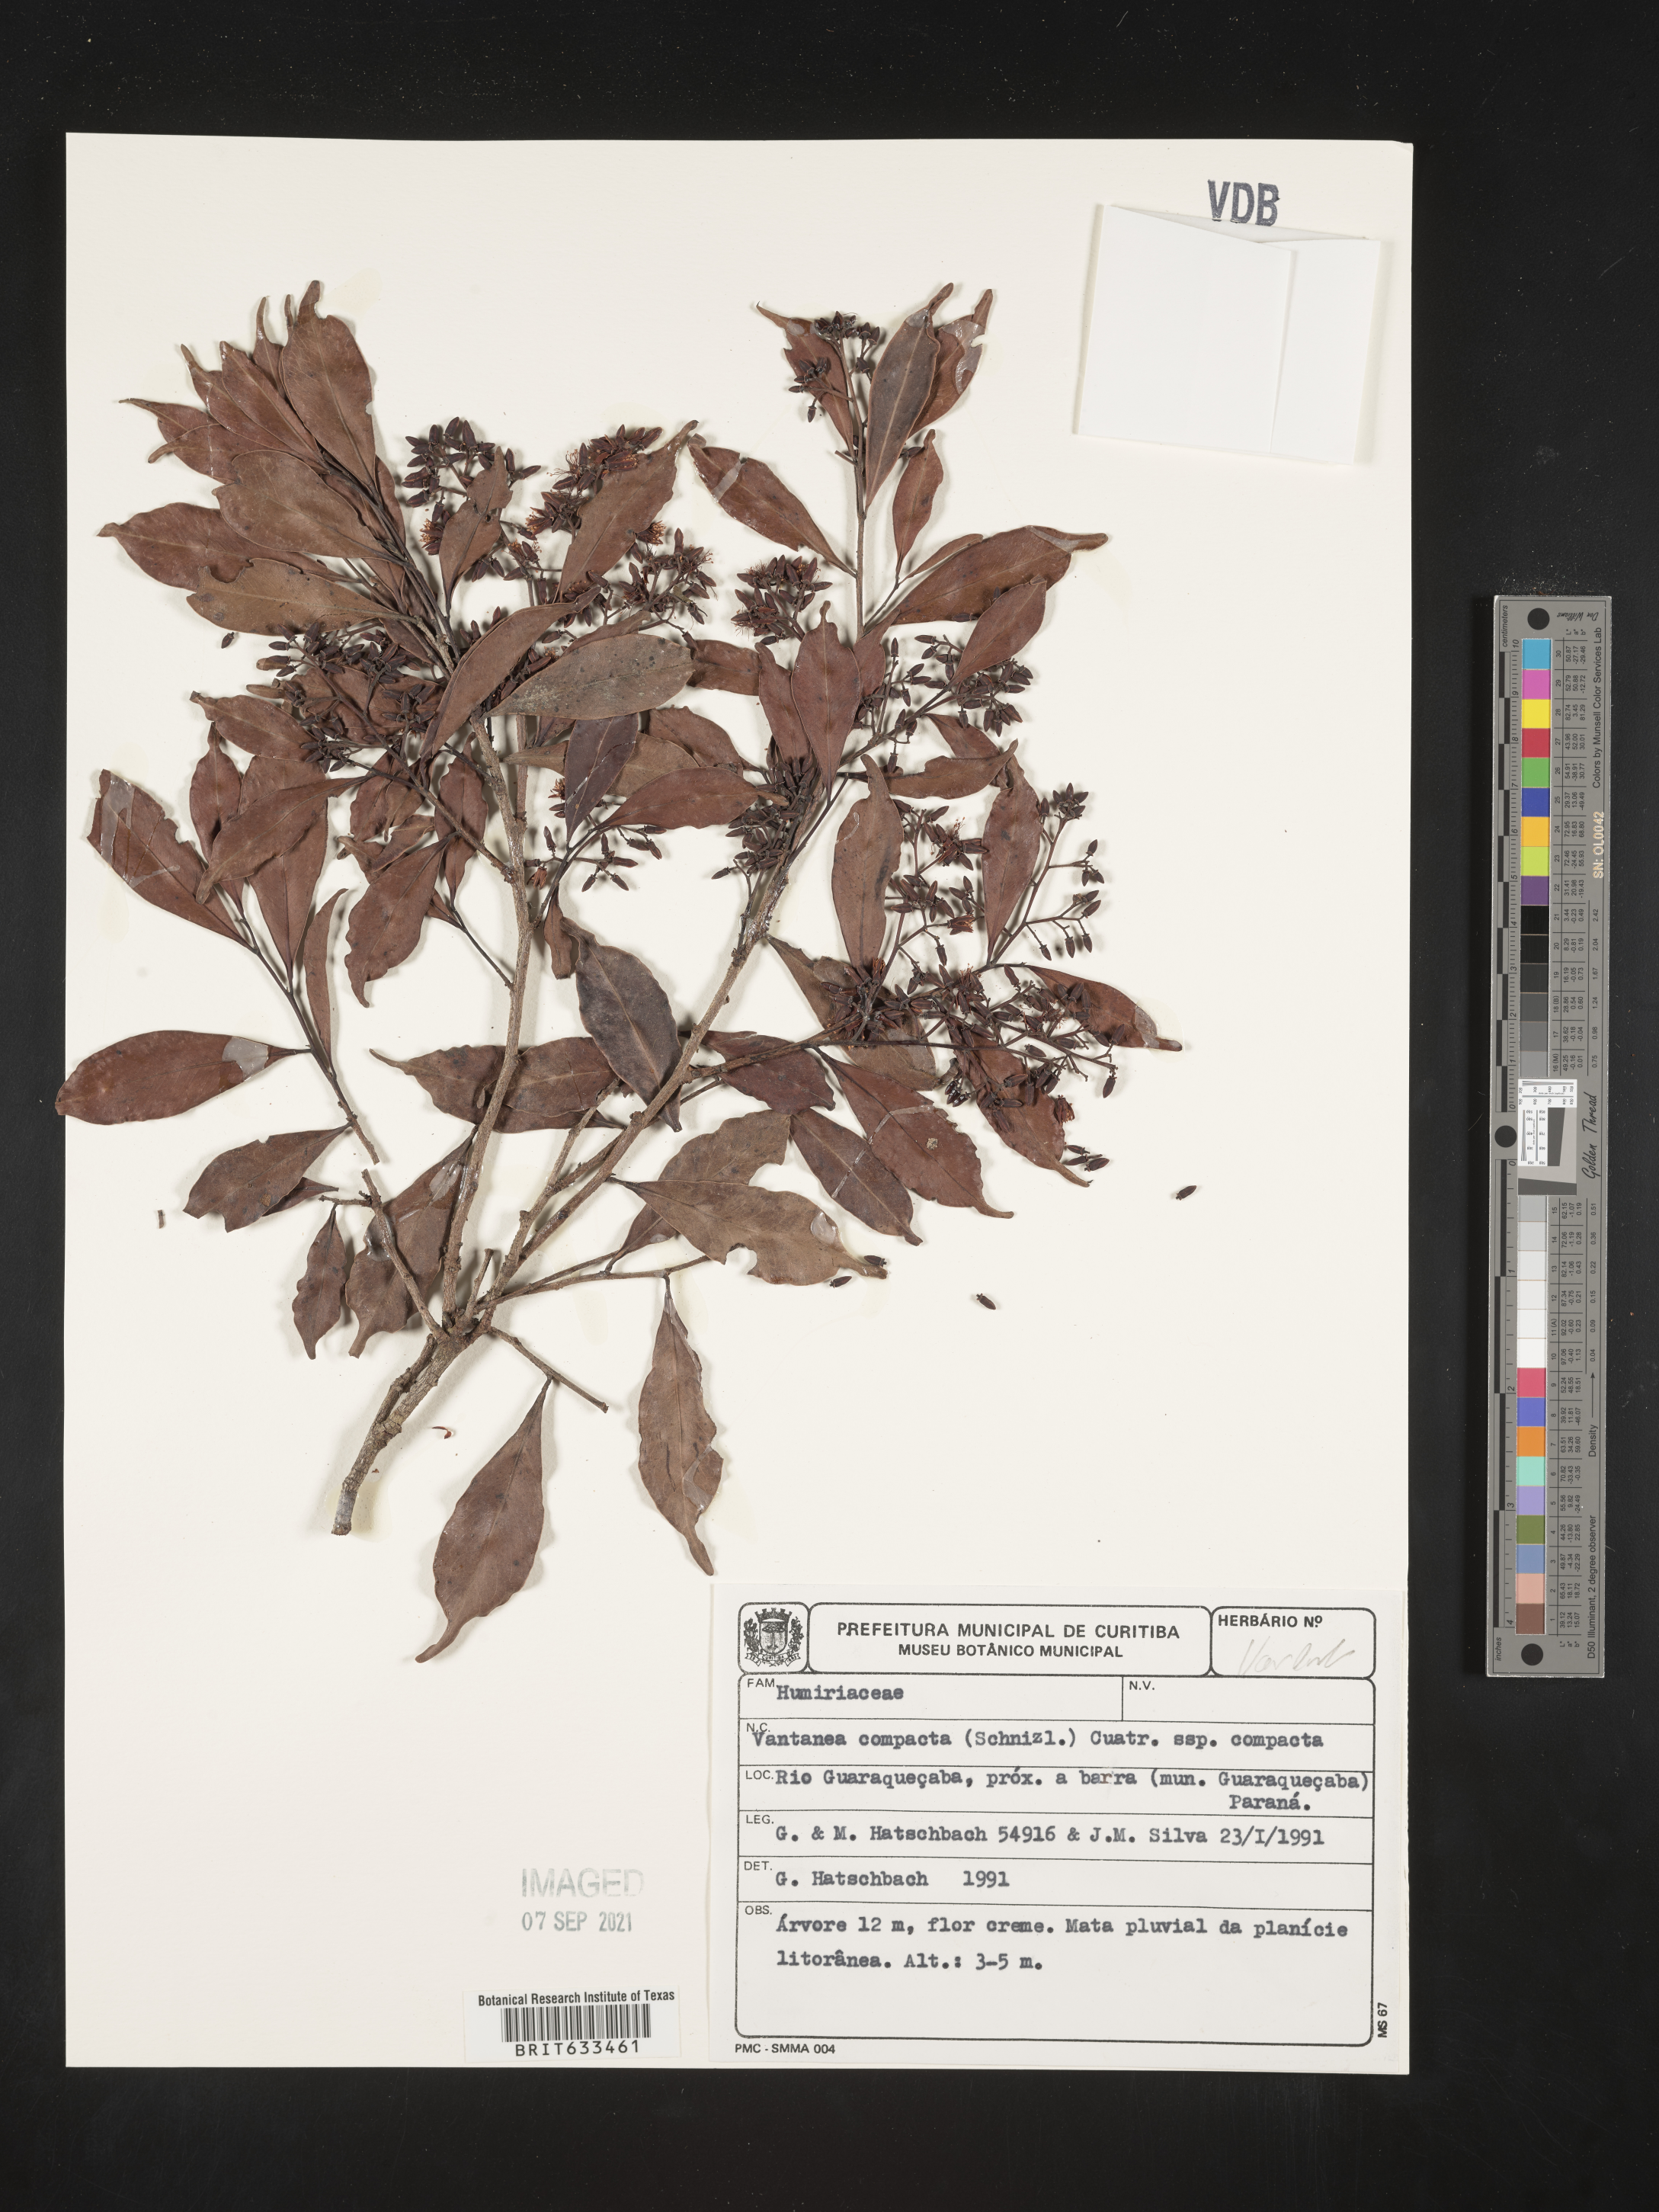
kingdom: Plantae
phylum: Tracheophyta
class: Magnoliopsida
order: Malpighiales
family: Humiriaceae
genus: Vantanea
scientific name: Vantanea
